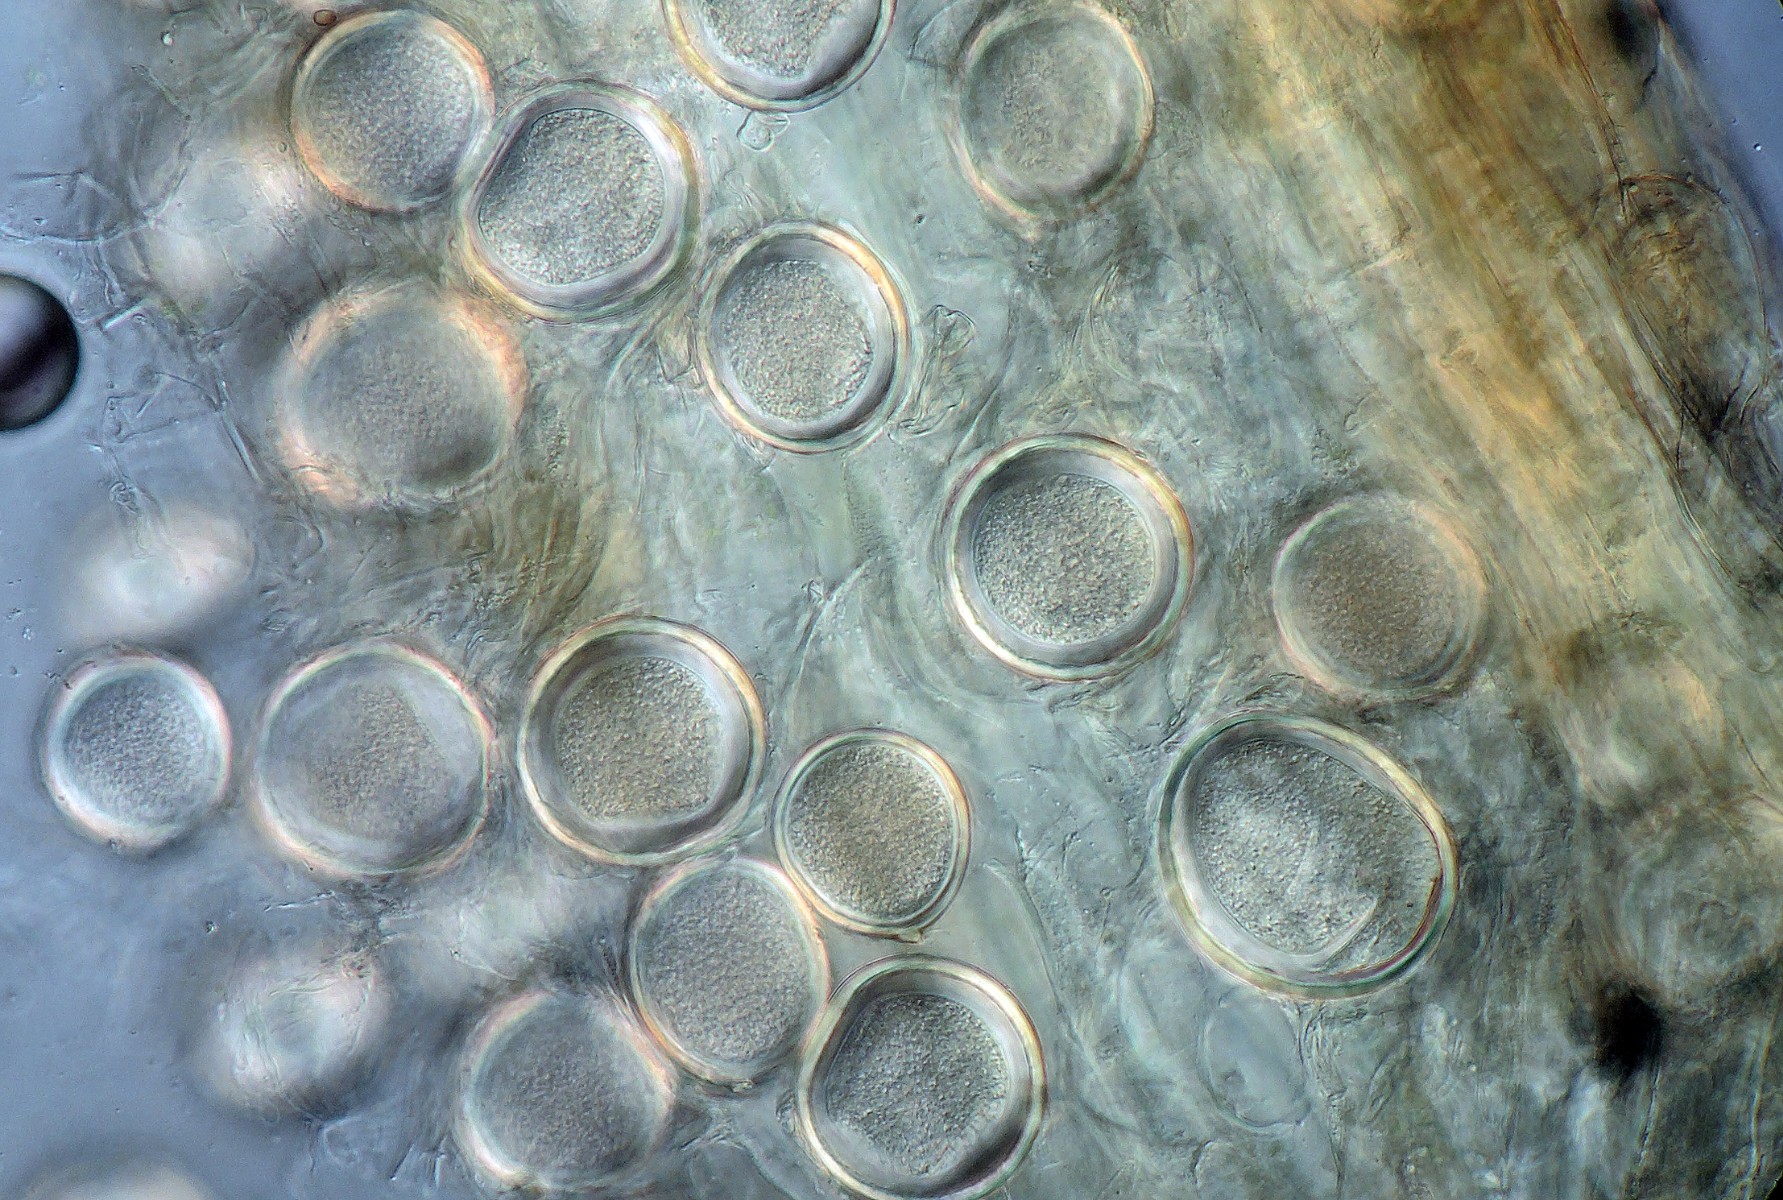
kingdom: Fungi
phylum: Ascomycota
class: Taphrinomycetes
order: Taphrinales
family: Taphrinaceae
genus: Protomyces
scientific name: Protomyces macrosporus
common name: skvalderkål-vablesæk
